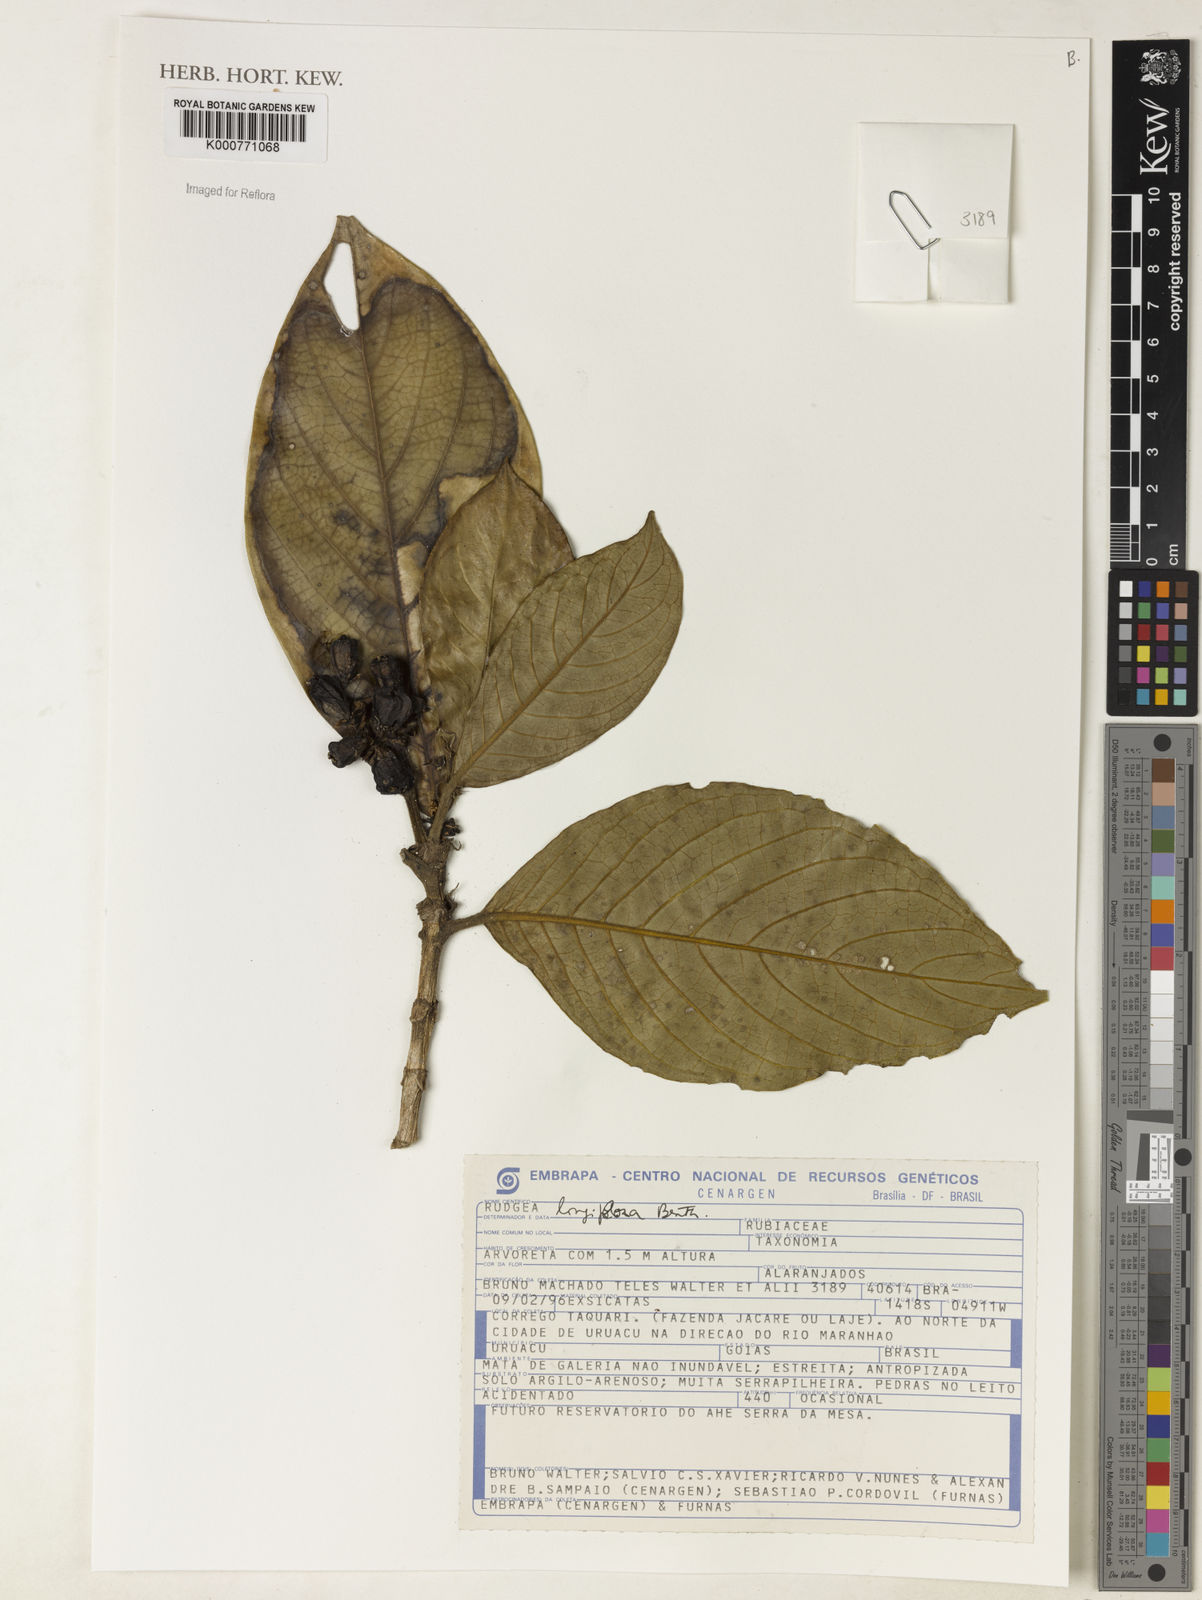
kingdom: Plantae
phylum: Tracheophyta
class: Magnoliopsida
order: Gentianales
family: Rubiaceae
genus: Rudgea
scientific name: Rudgea longiflora
